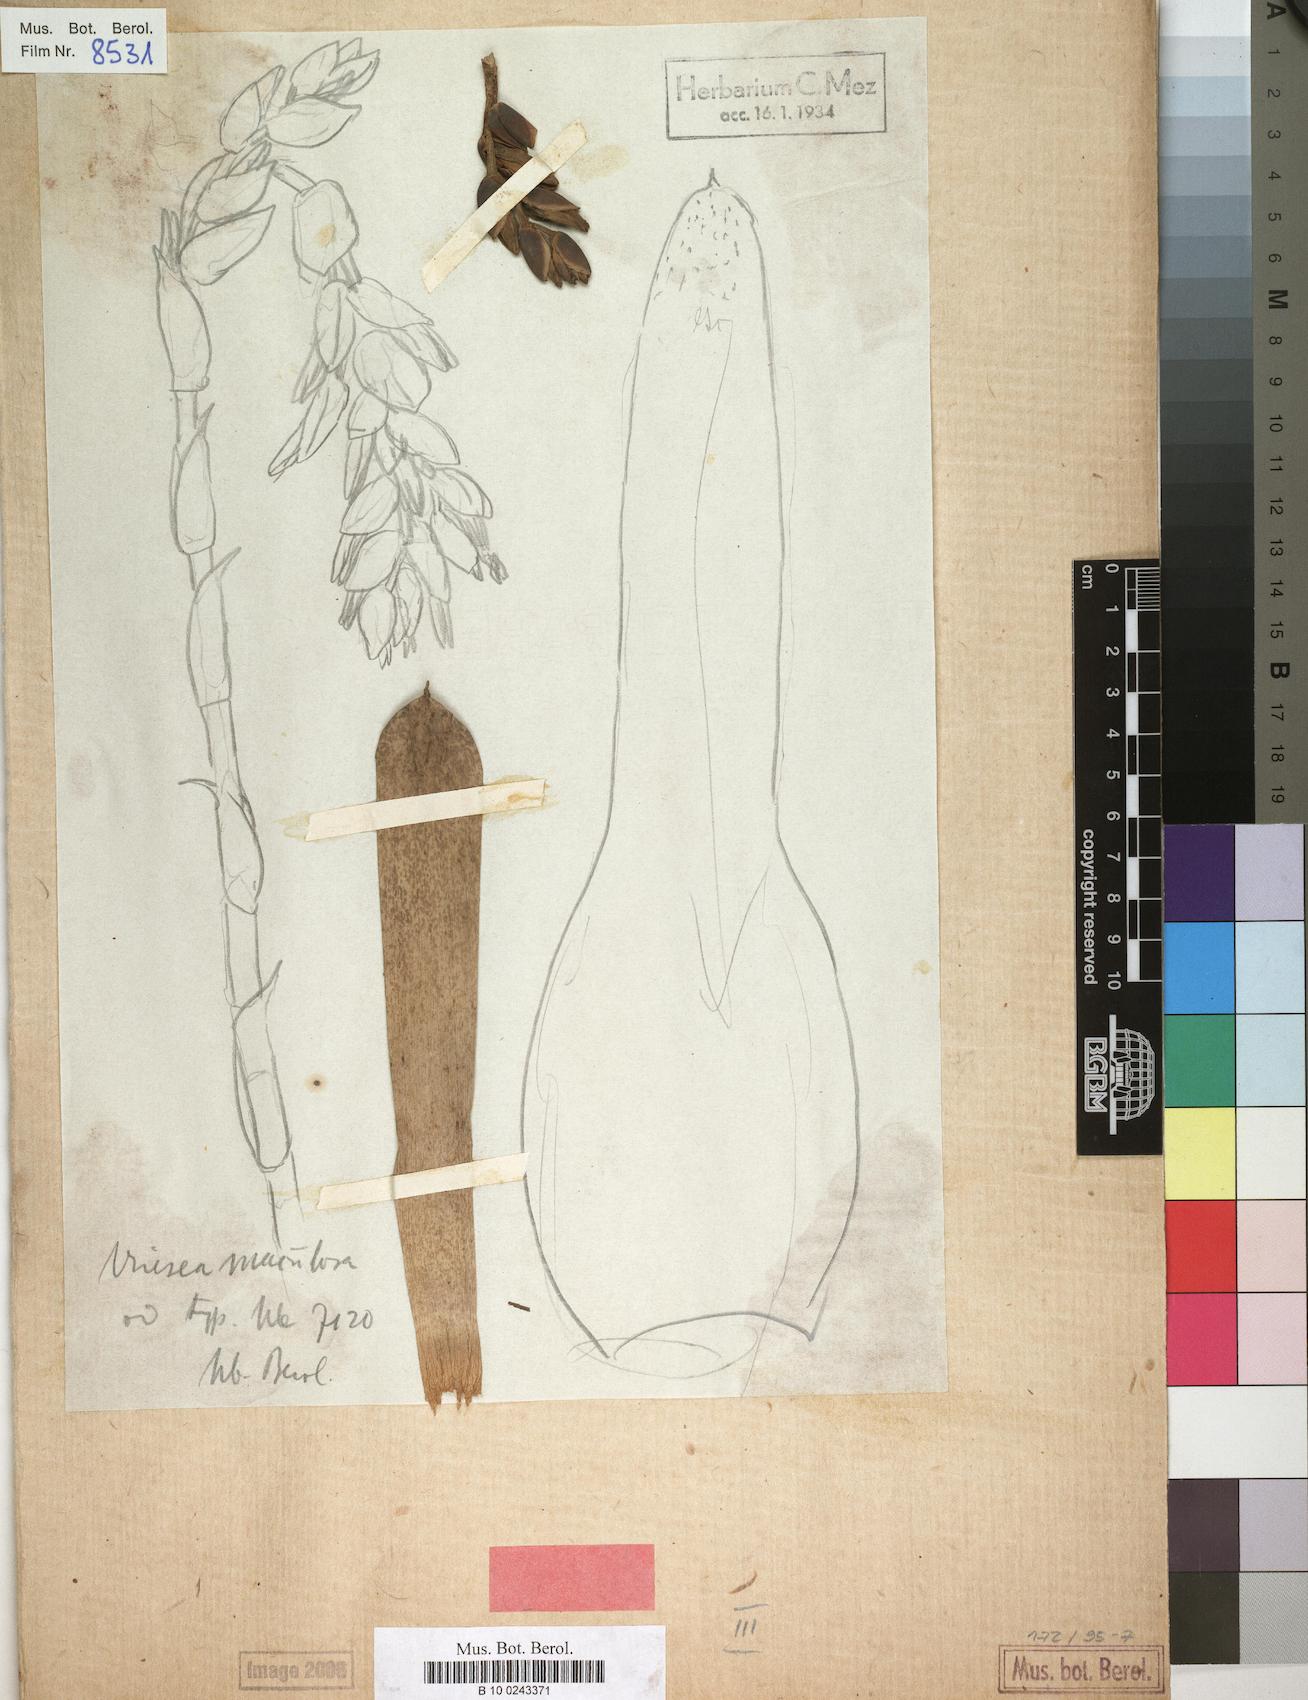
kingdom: Plantae
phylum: Tracheophyta
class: Liliopsida
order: Poales
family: Bromeliaceae
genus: Vriesea
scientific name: Vriesea maculosa
